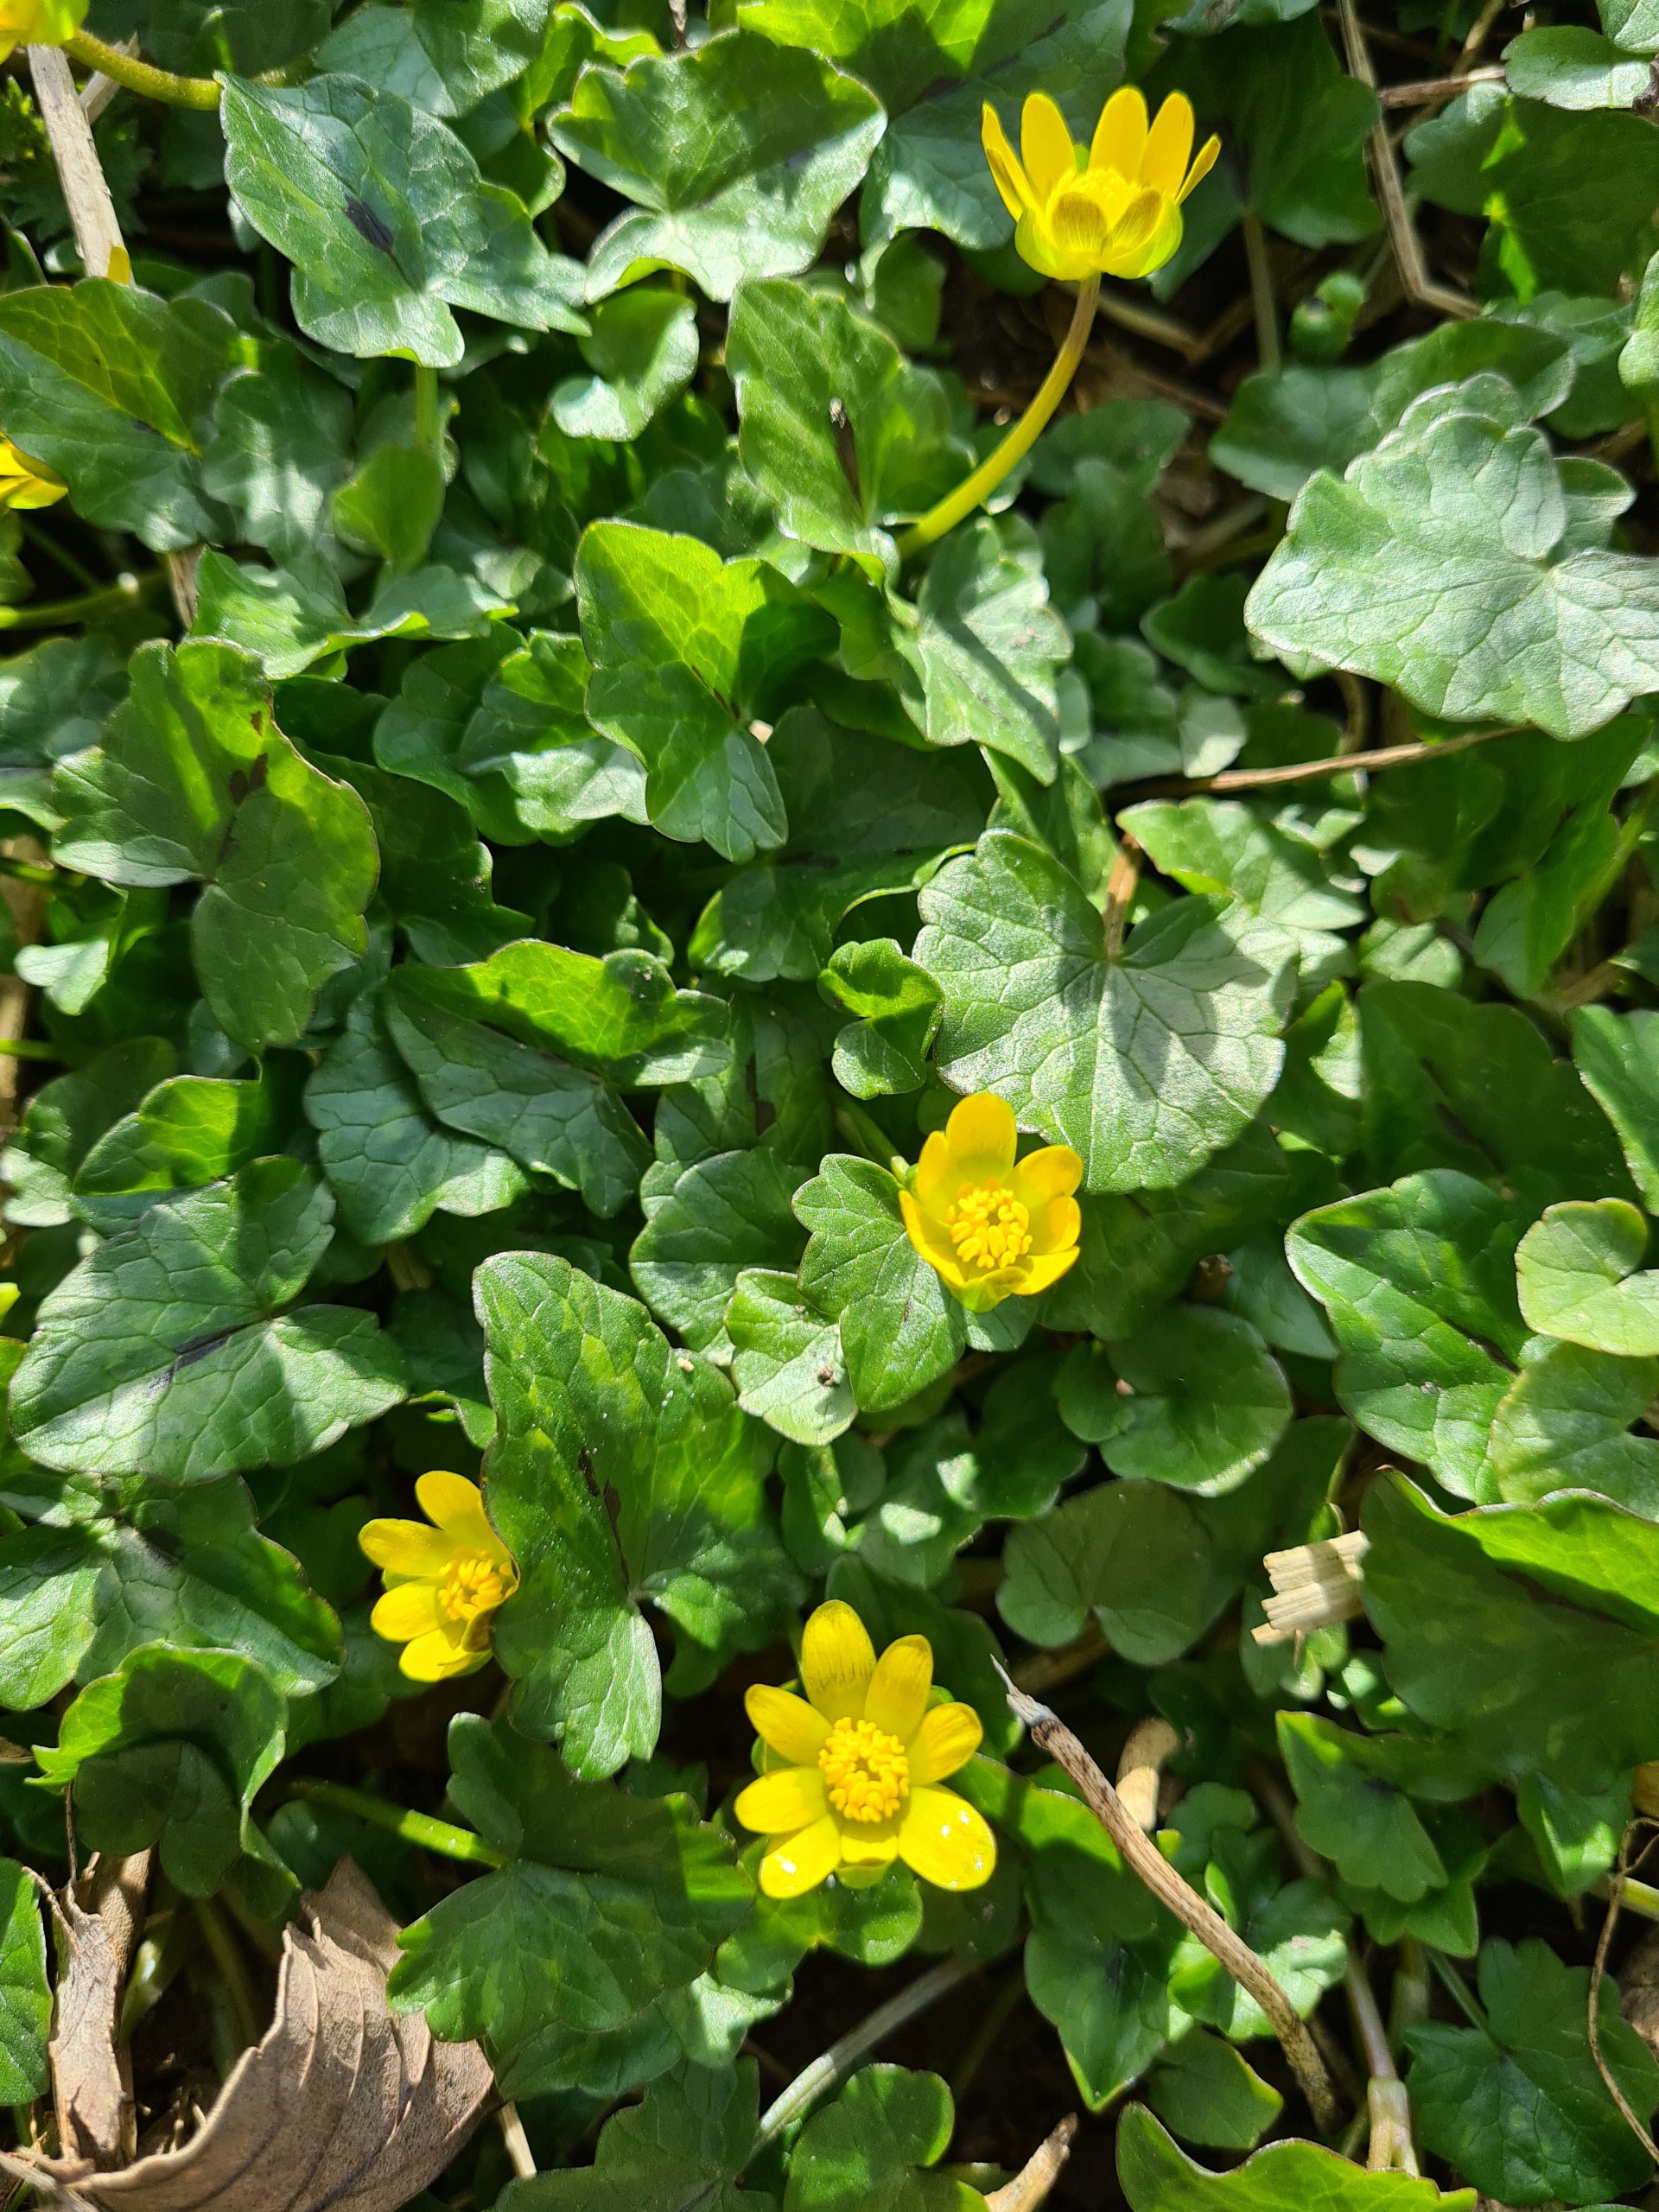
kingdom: Plantae
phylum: Tracheophyta
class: Magnoliopsida
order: Ranunculales
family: Ranunculaceae
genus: Ficaria
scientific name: Ficaria verna
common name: Vorterod
